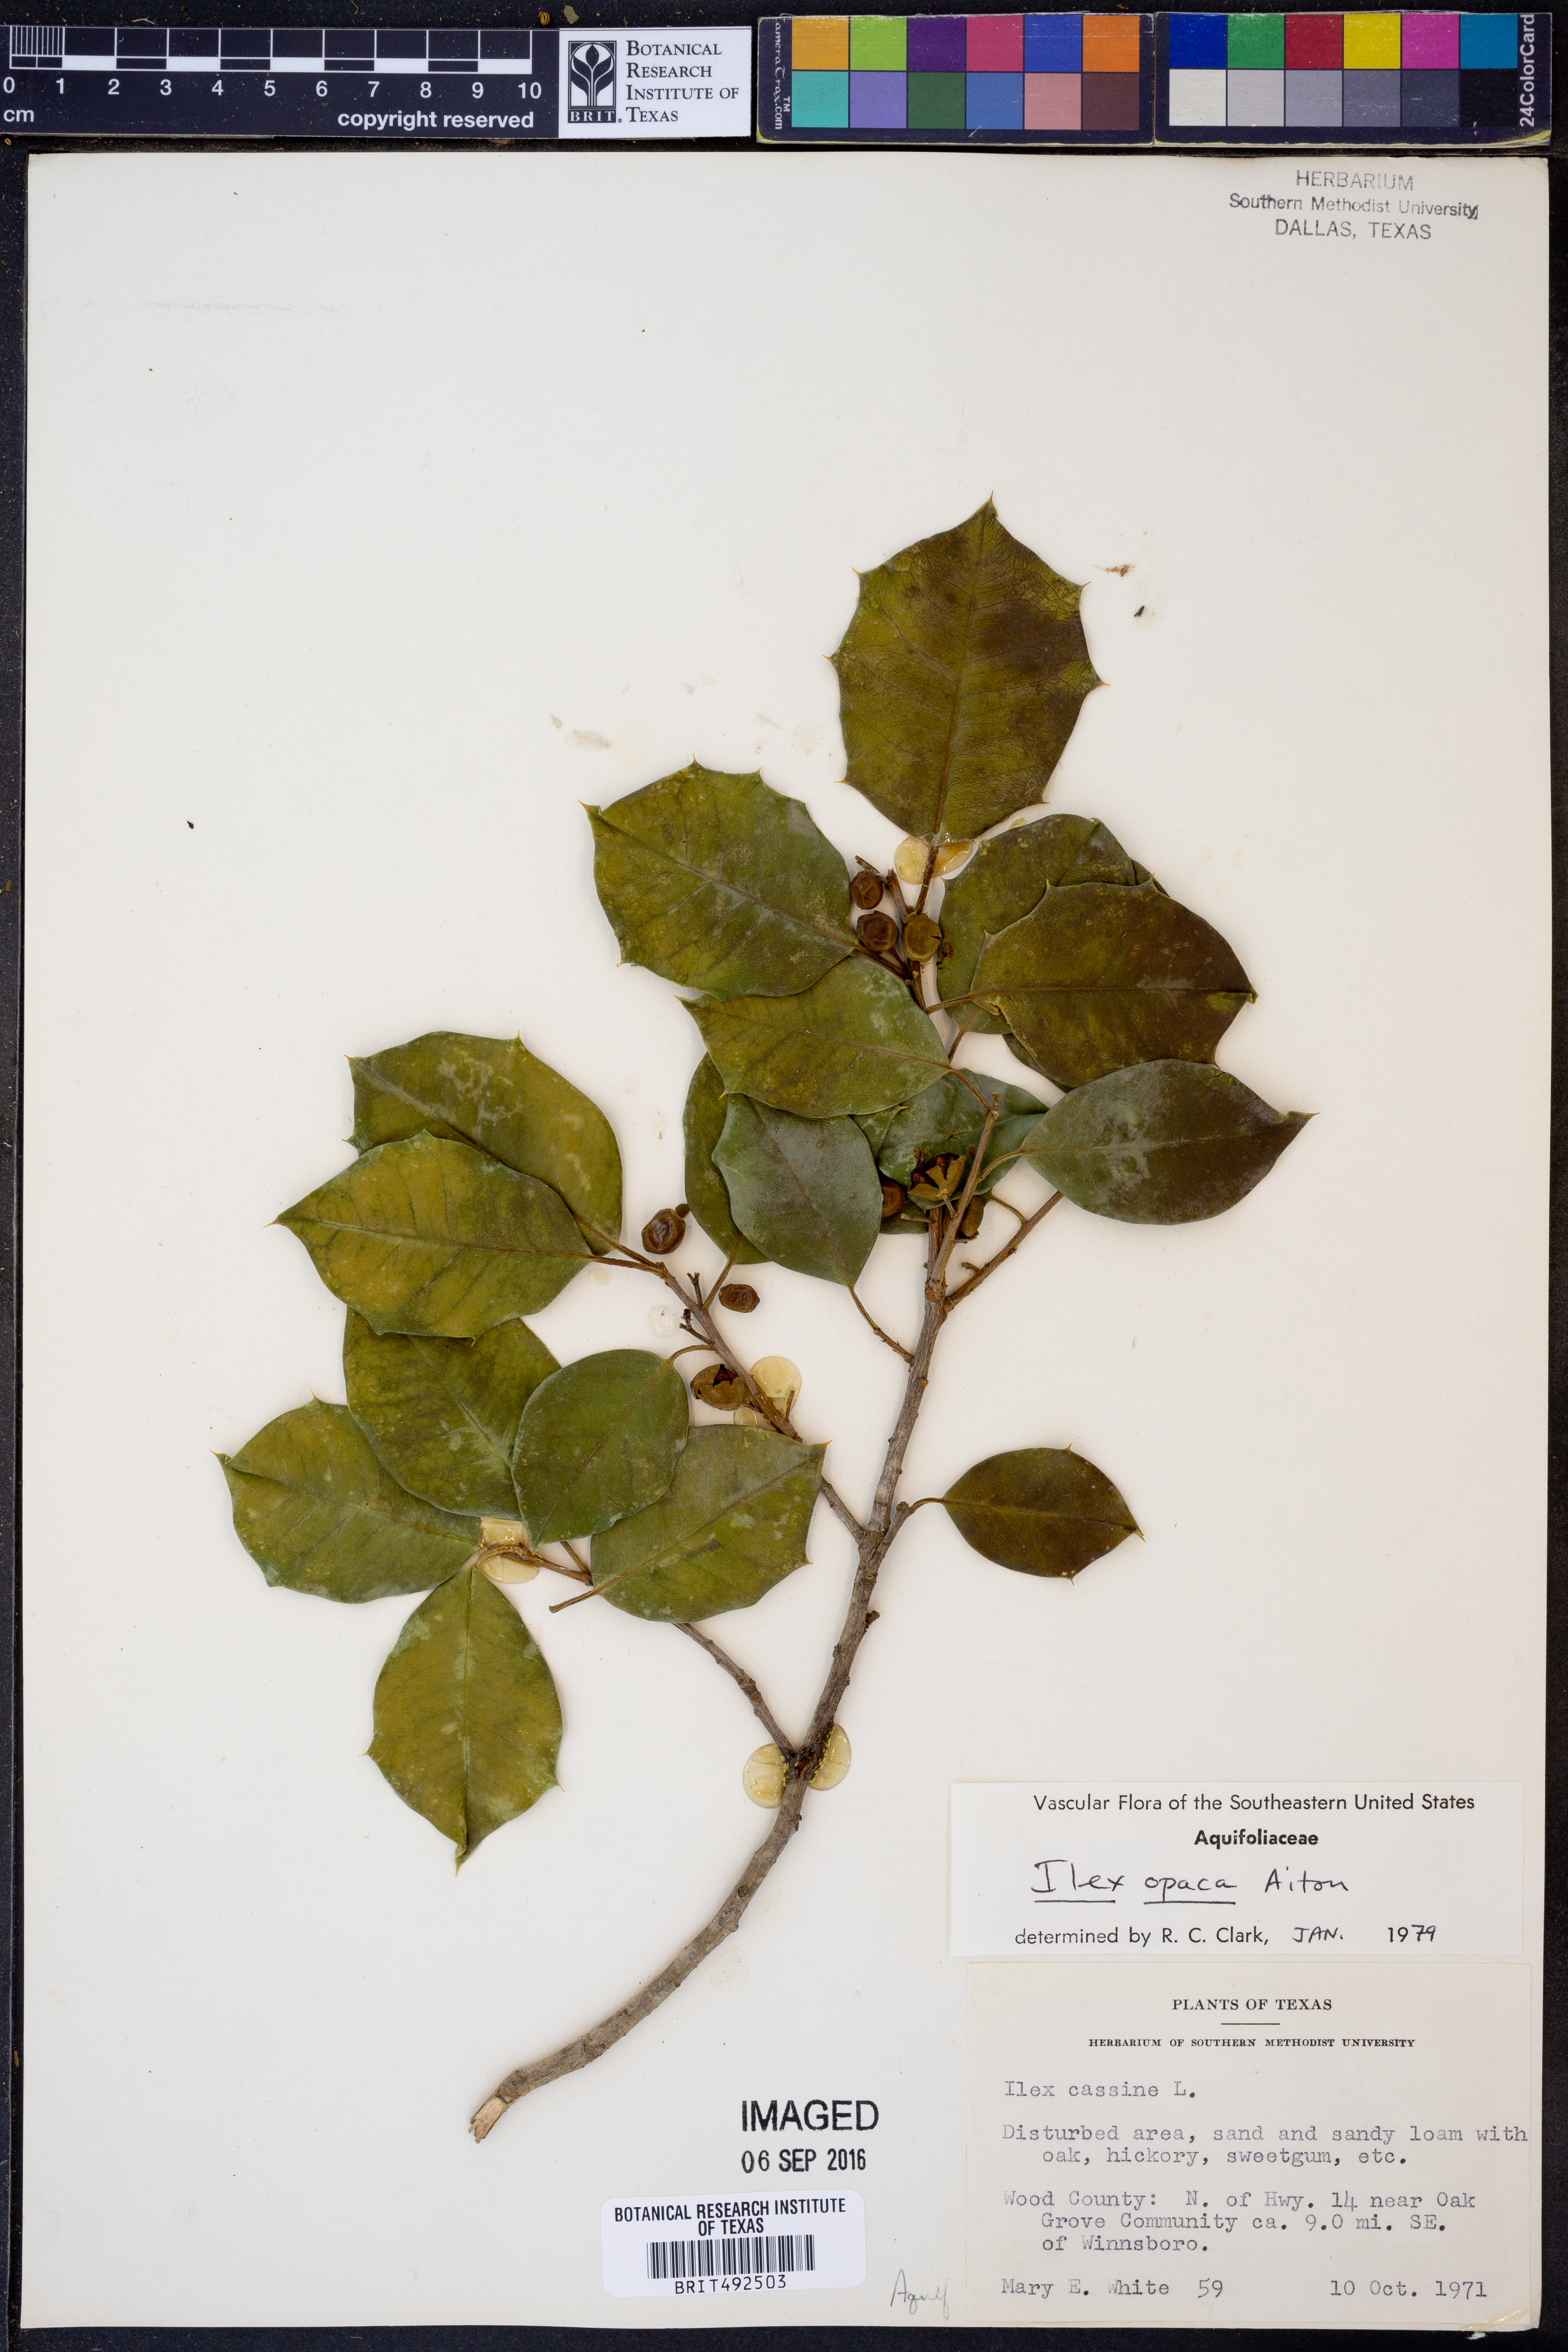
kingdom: Plantae
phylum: Tracheophyta
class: Magnoliopsida
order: Aquifoliales
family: Aquifoliaceae
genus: Ilex
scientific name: Ilex opaca
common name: American holly
